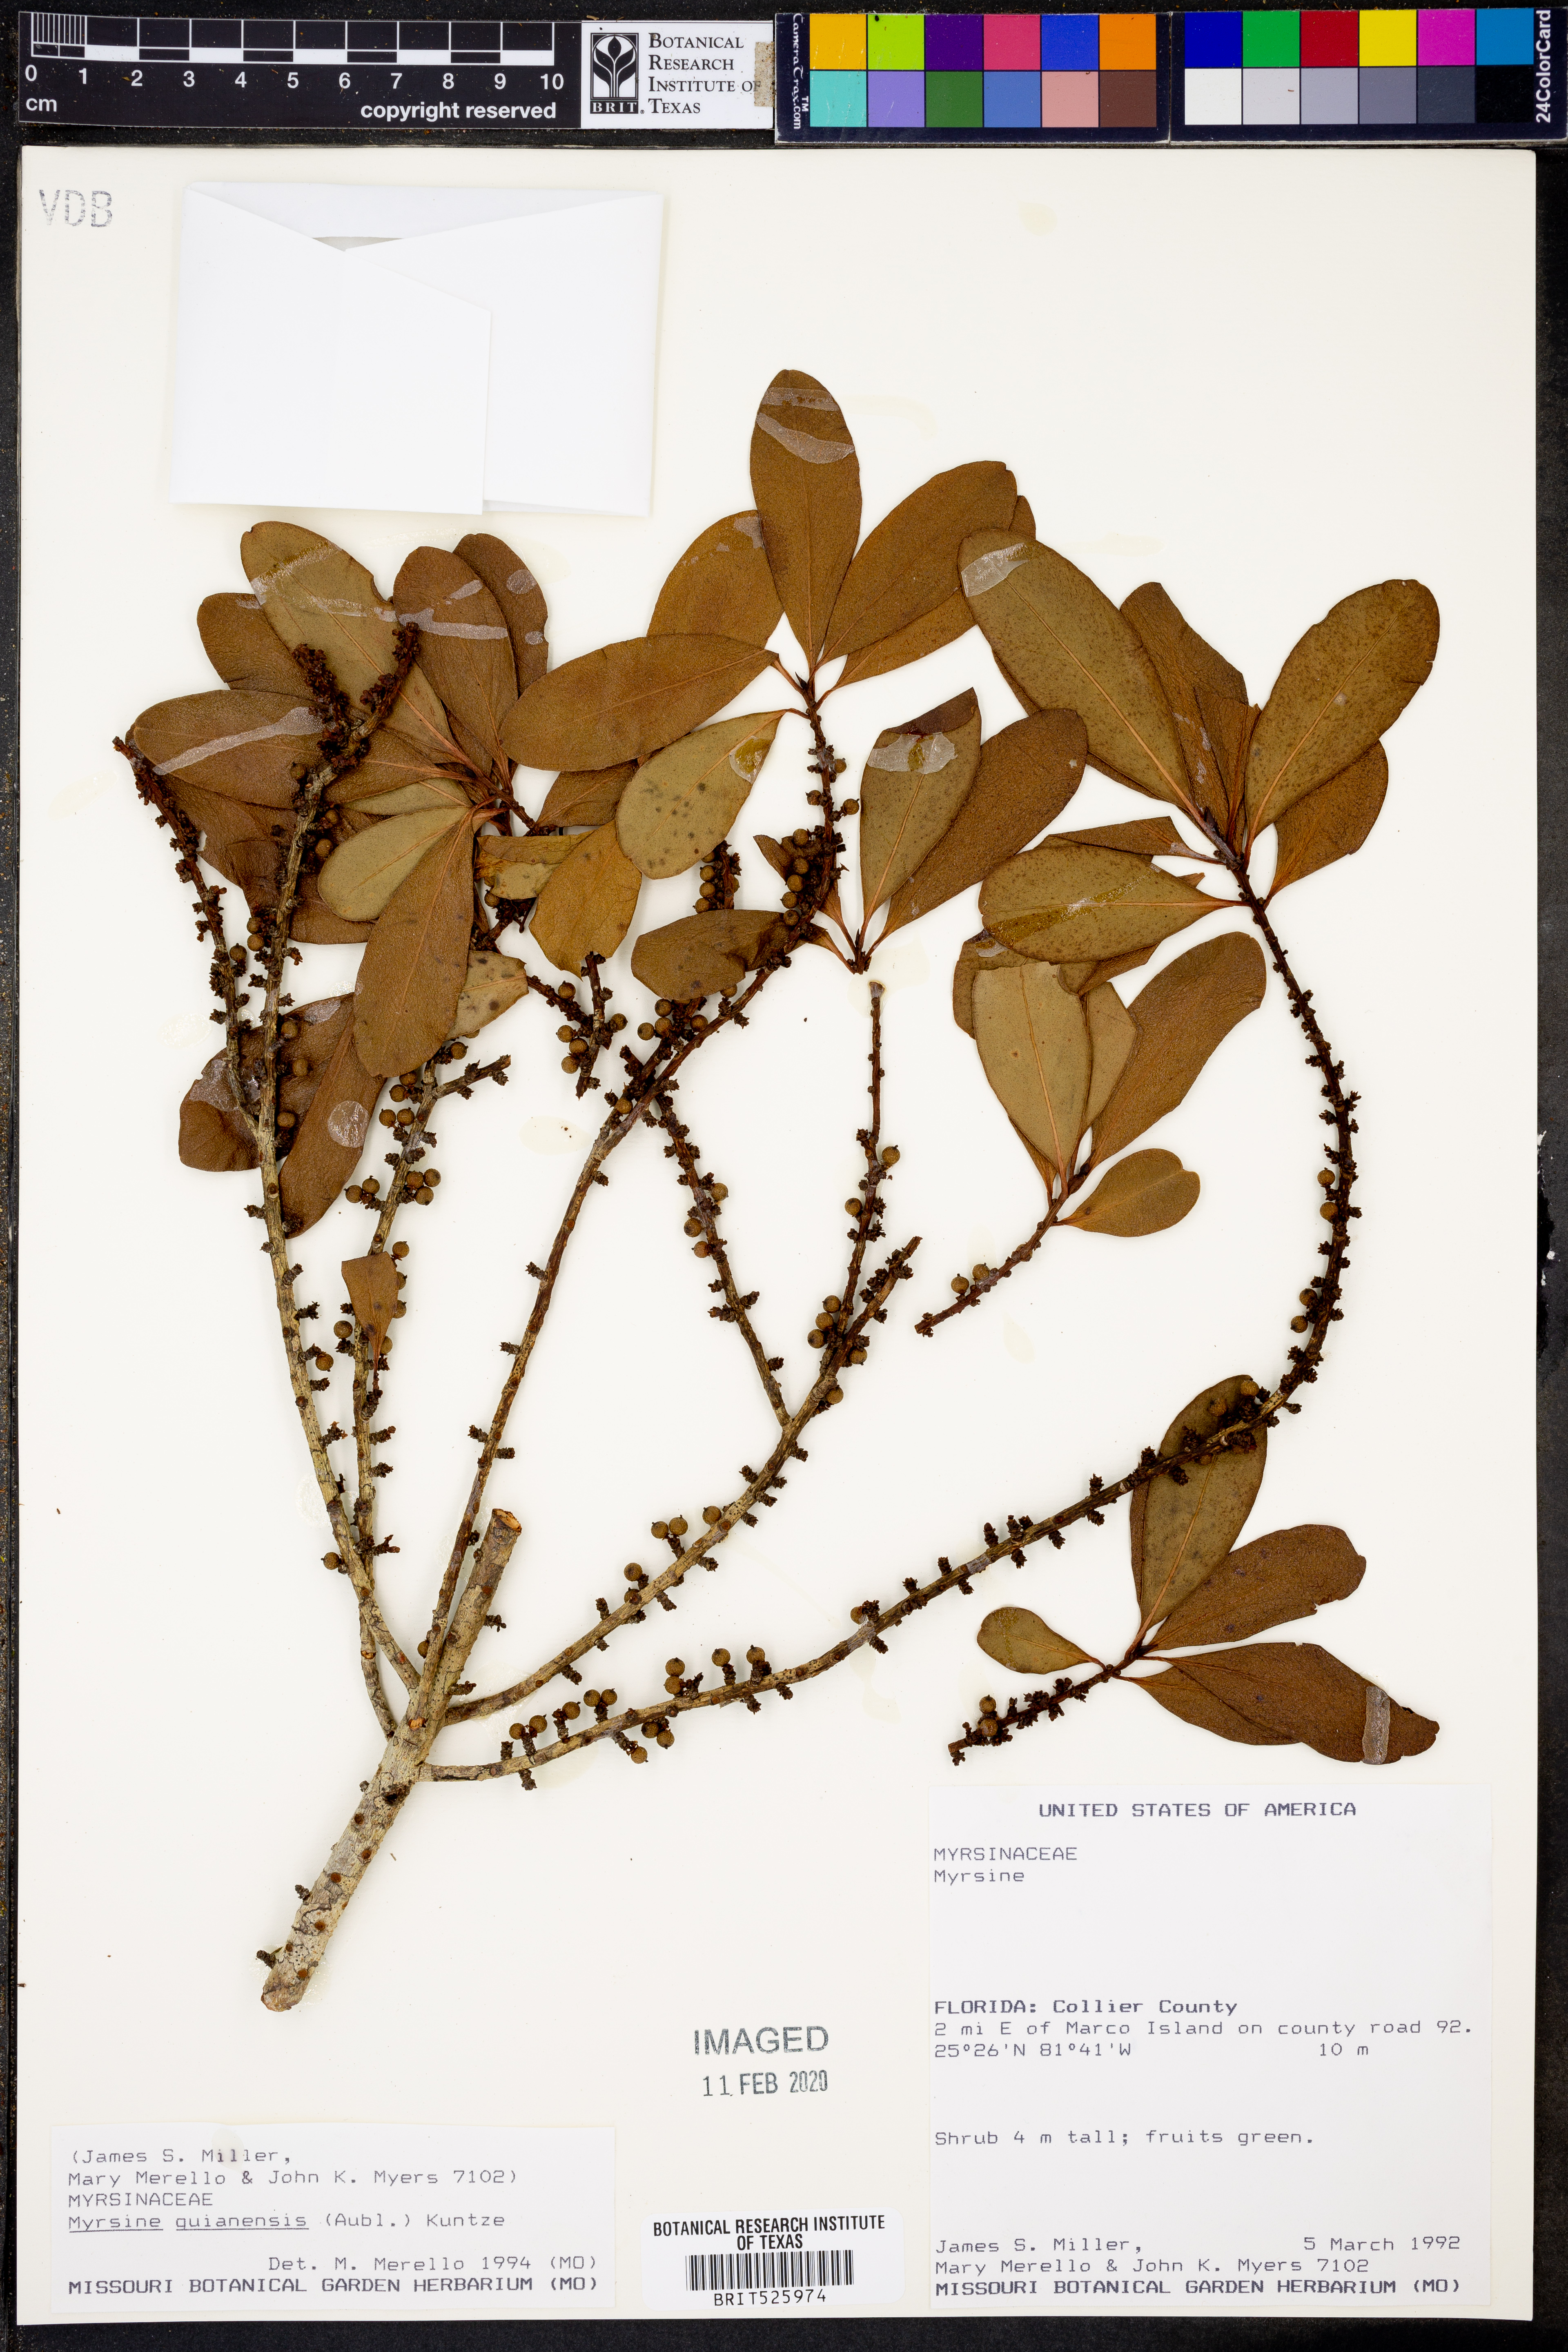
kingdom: Plantae
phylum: Tracheophyta
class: Magnoliopsida
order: Ericales
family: Primulaceae
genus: Myrsine
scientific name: Myrsine guianensis
